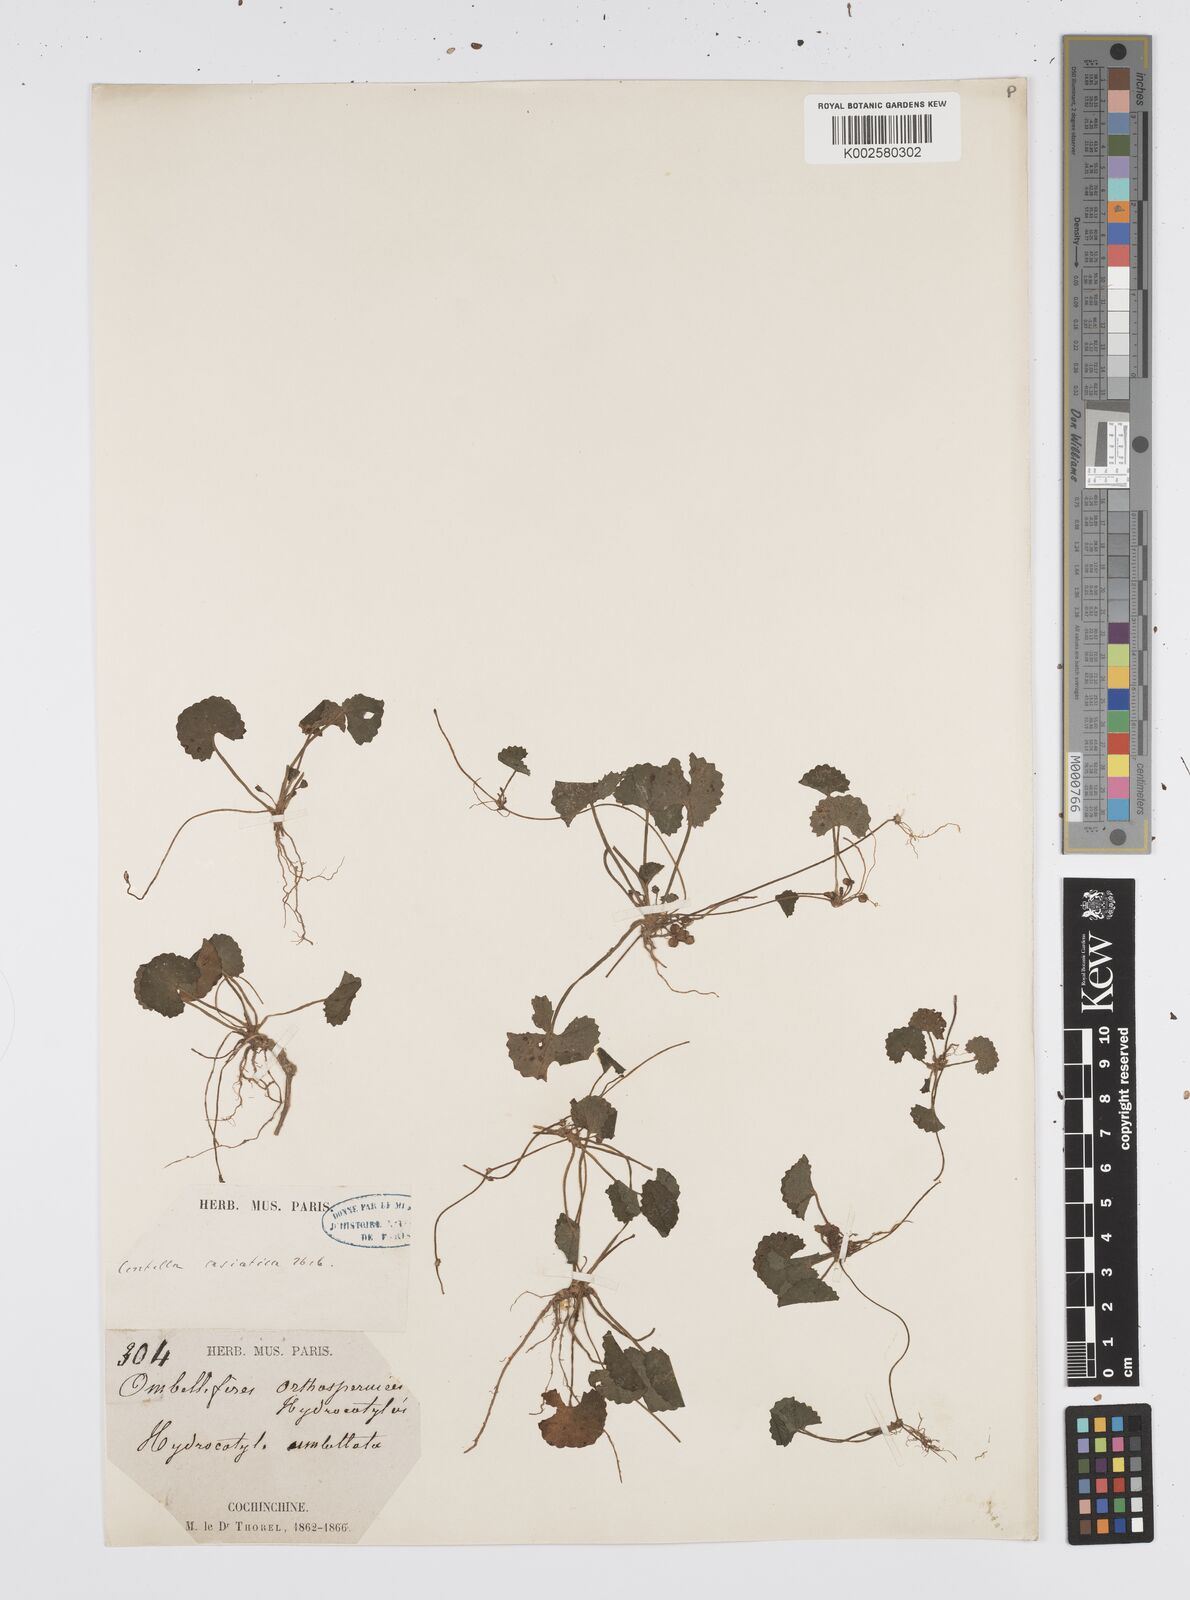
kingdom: Plantae
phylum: Tracheophyta
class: Magnoliopsida
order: Apiales
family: Apiaceae
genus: Centella
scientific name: Centella asiatica
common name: Spadeleaf
